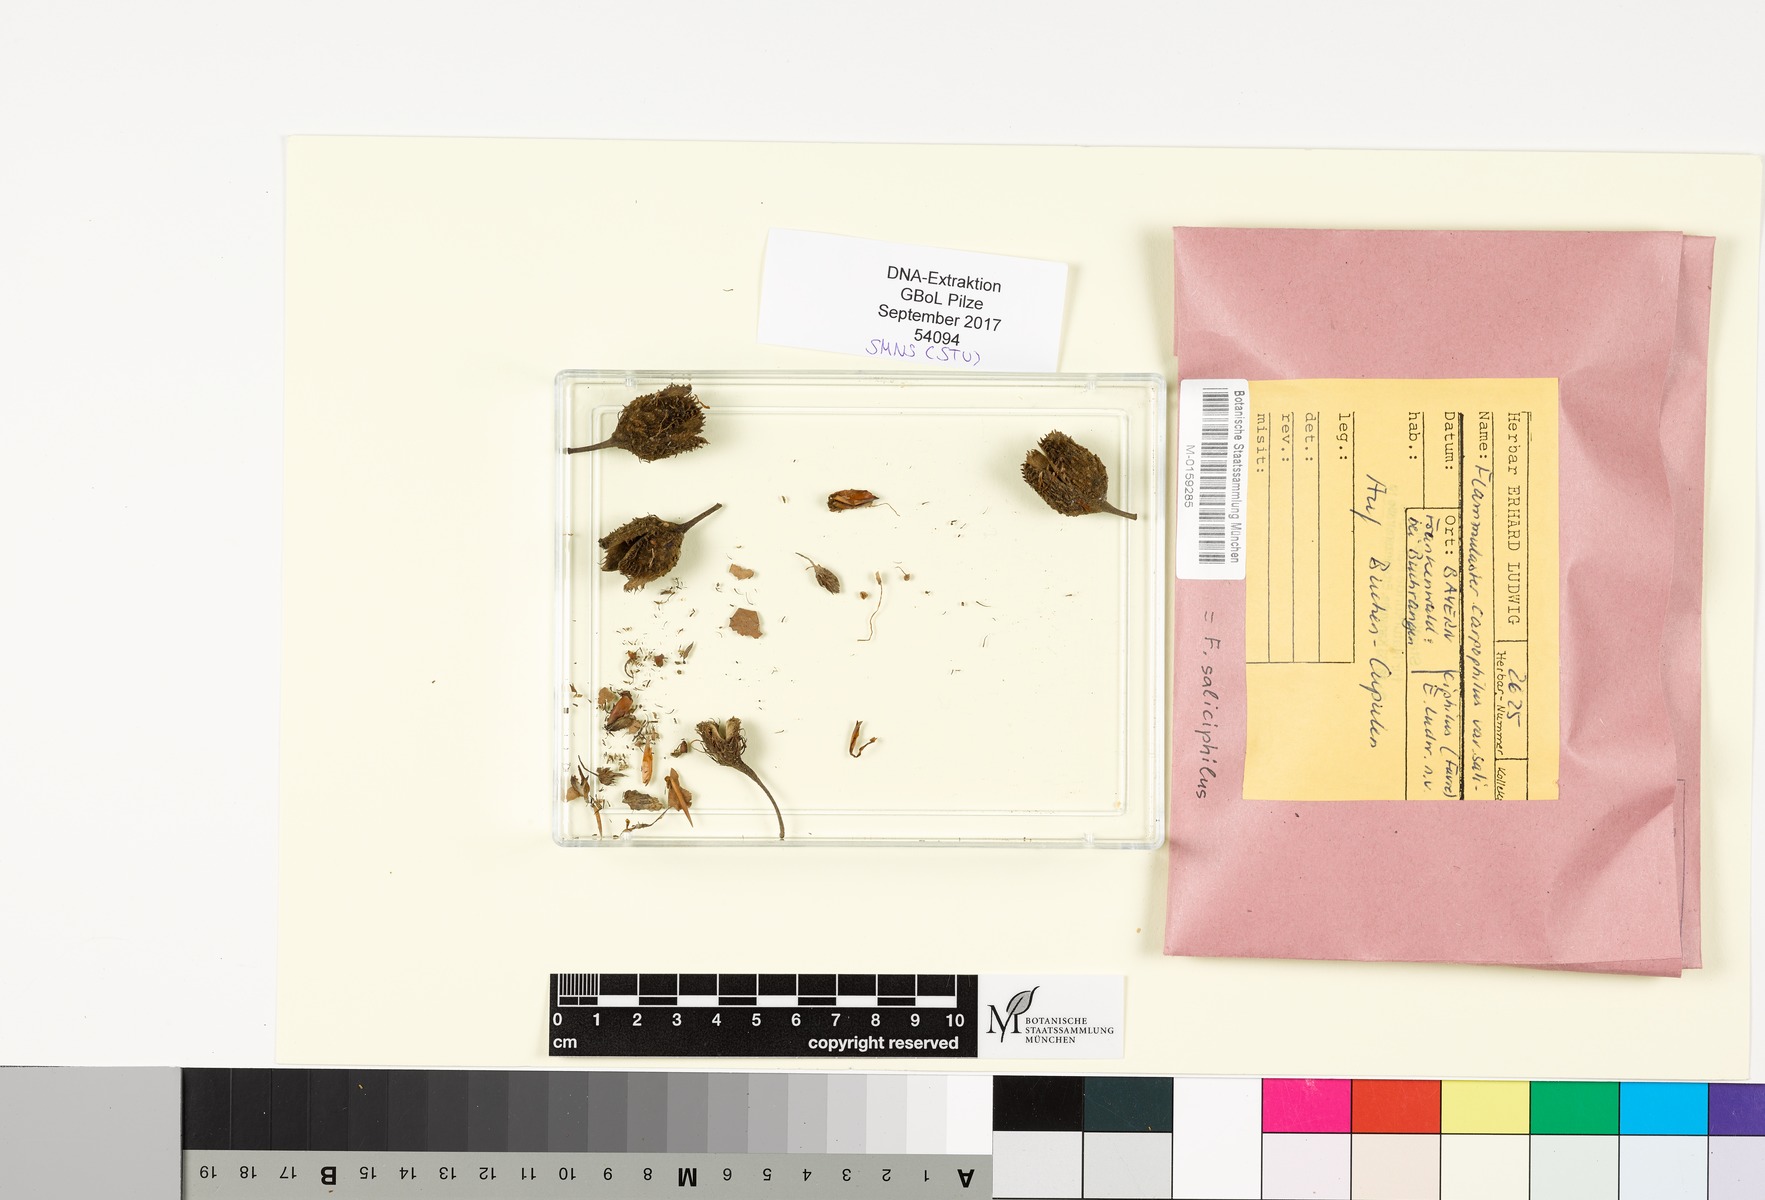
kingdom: Plantae
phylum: Tracheophyta
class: Magnoliopsida
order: Fagales
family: Fagaceae
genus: Fagus
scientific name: Fagus
